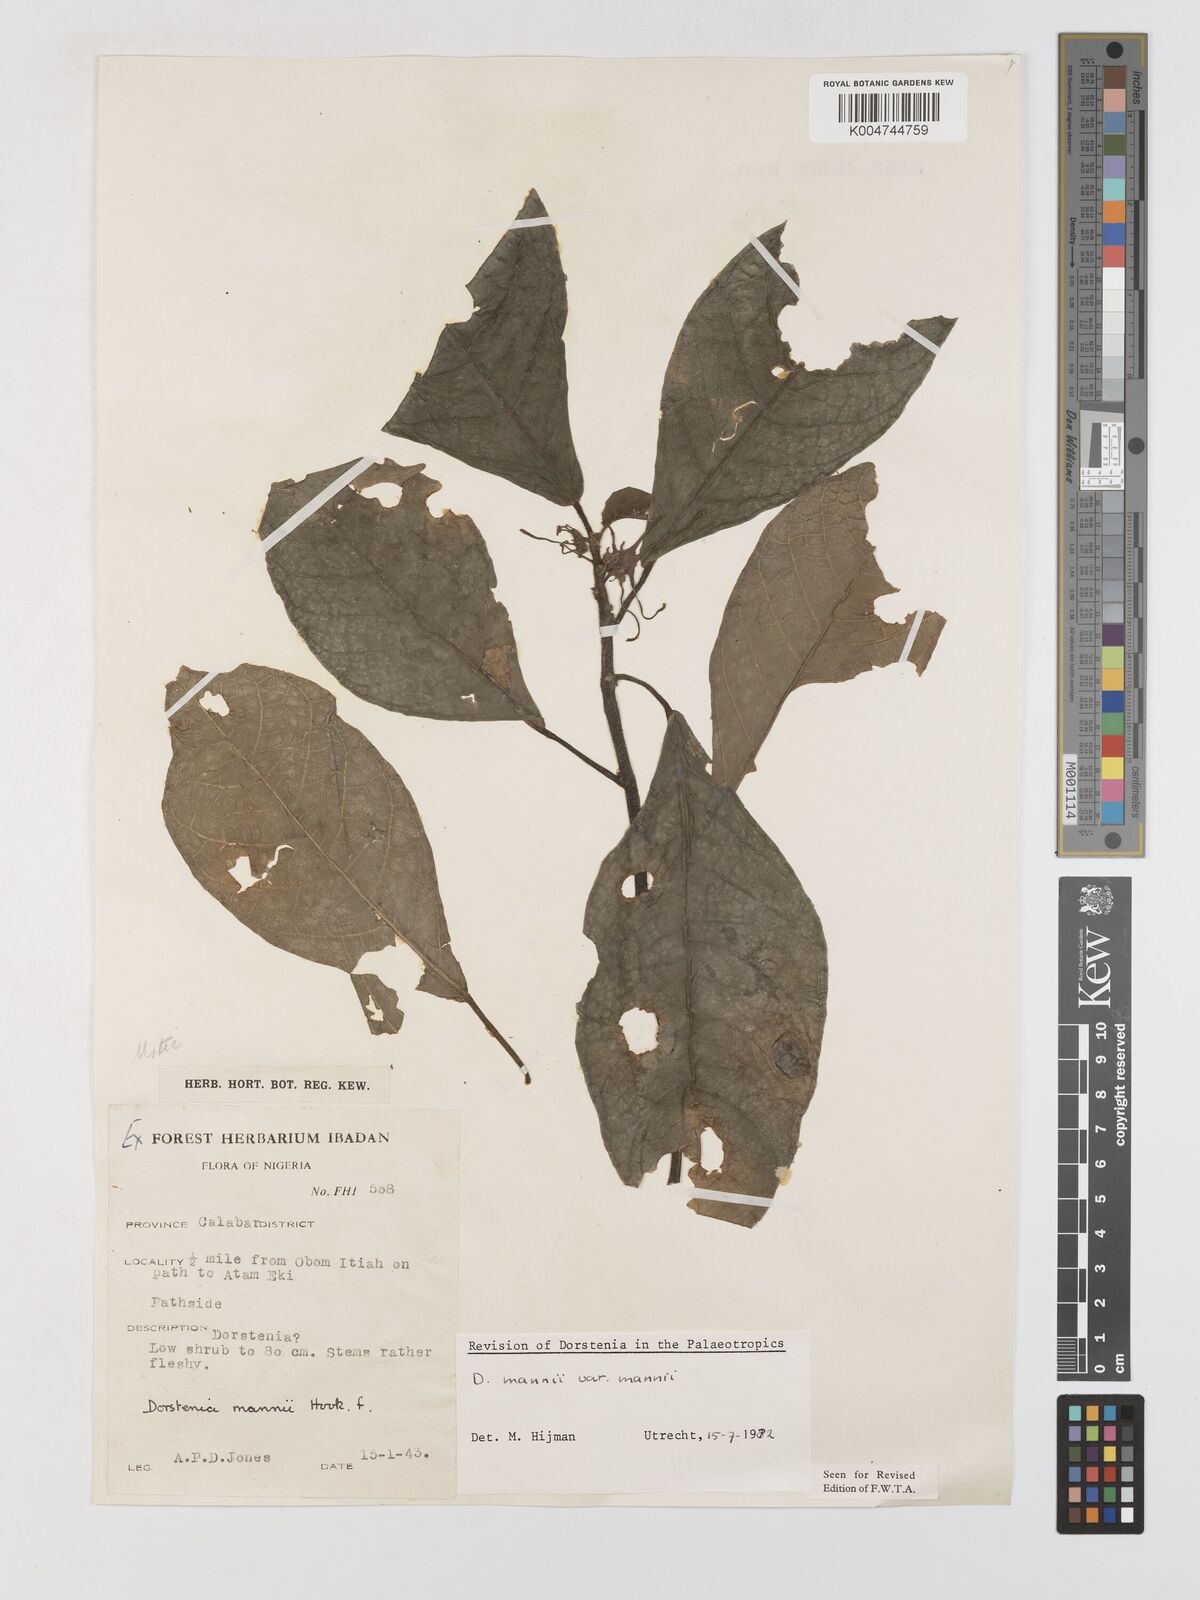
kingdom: Plantae
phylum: Tracheophyta
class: Magnoliopsida
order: Rosales
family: Moraceae
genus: Dorstenia
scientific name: Dorstenia mannii
